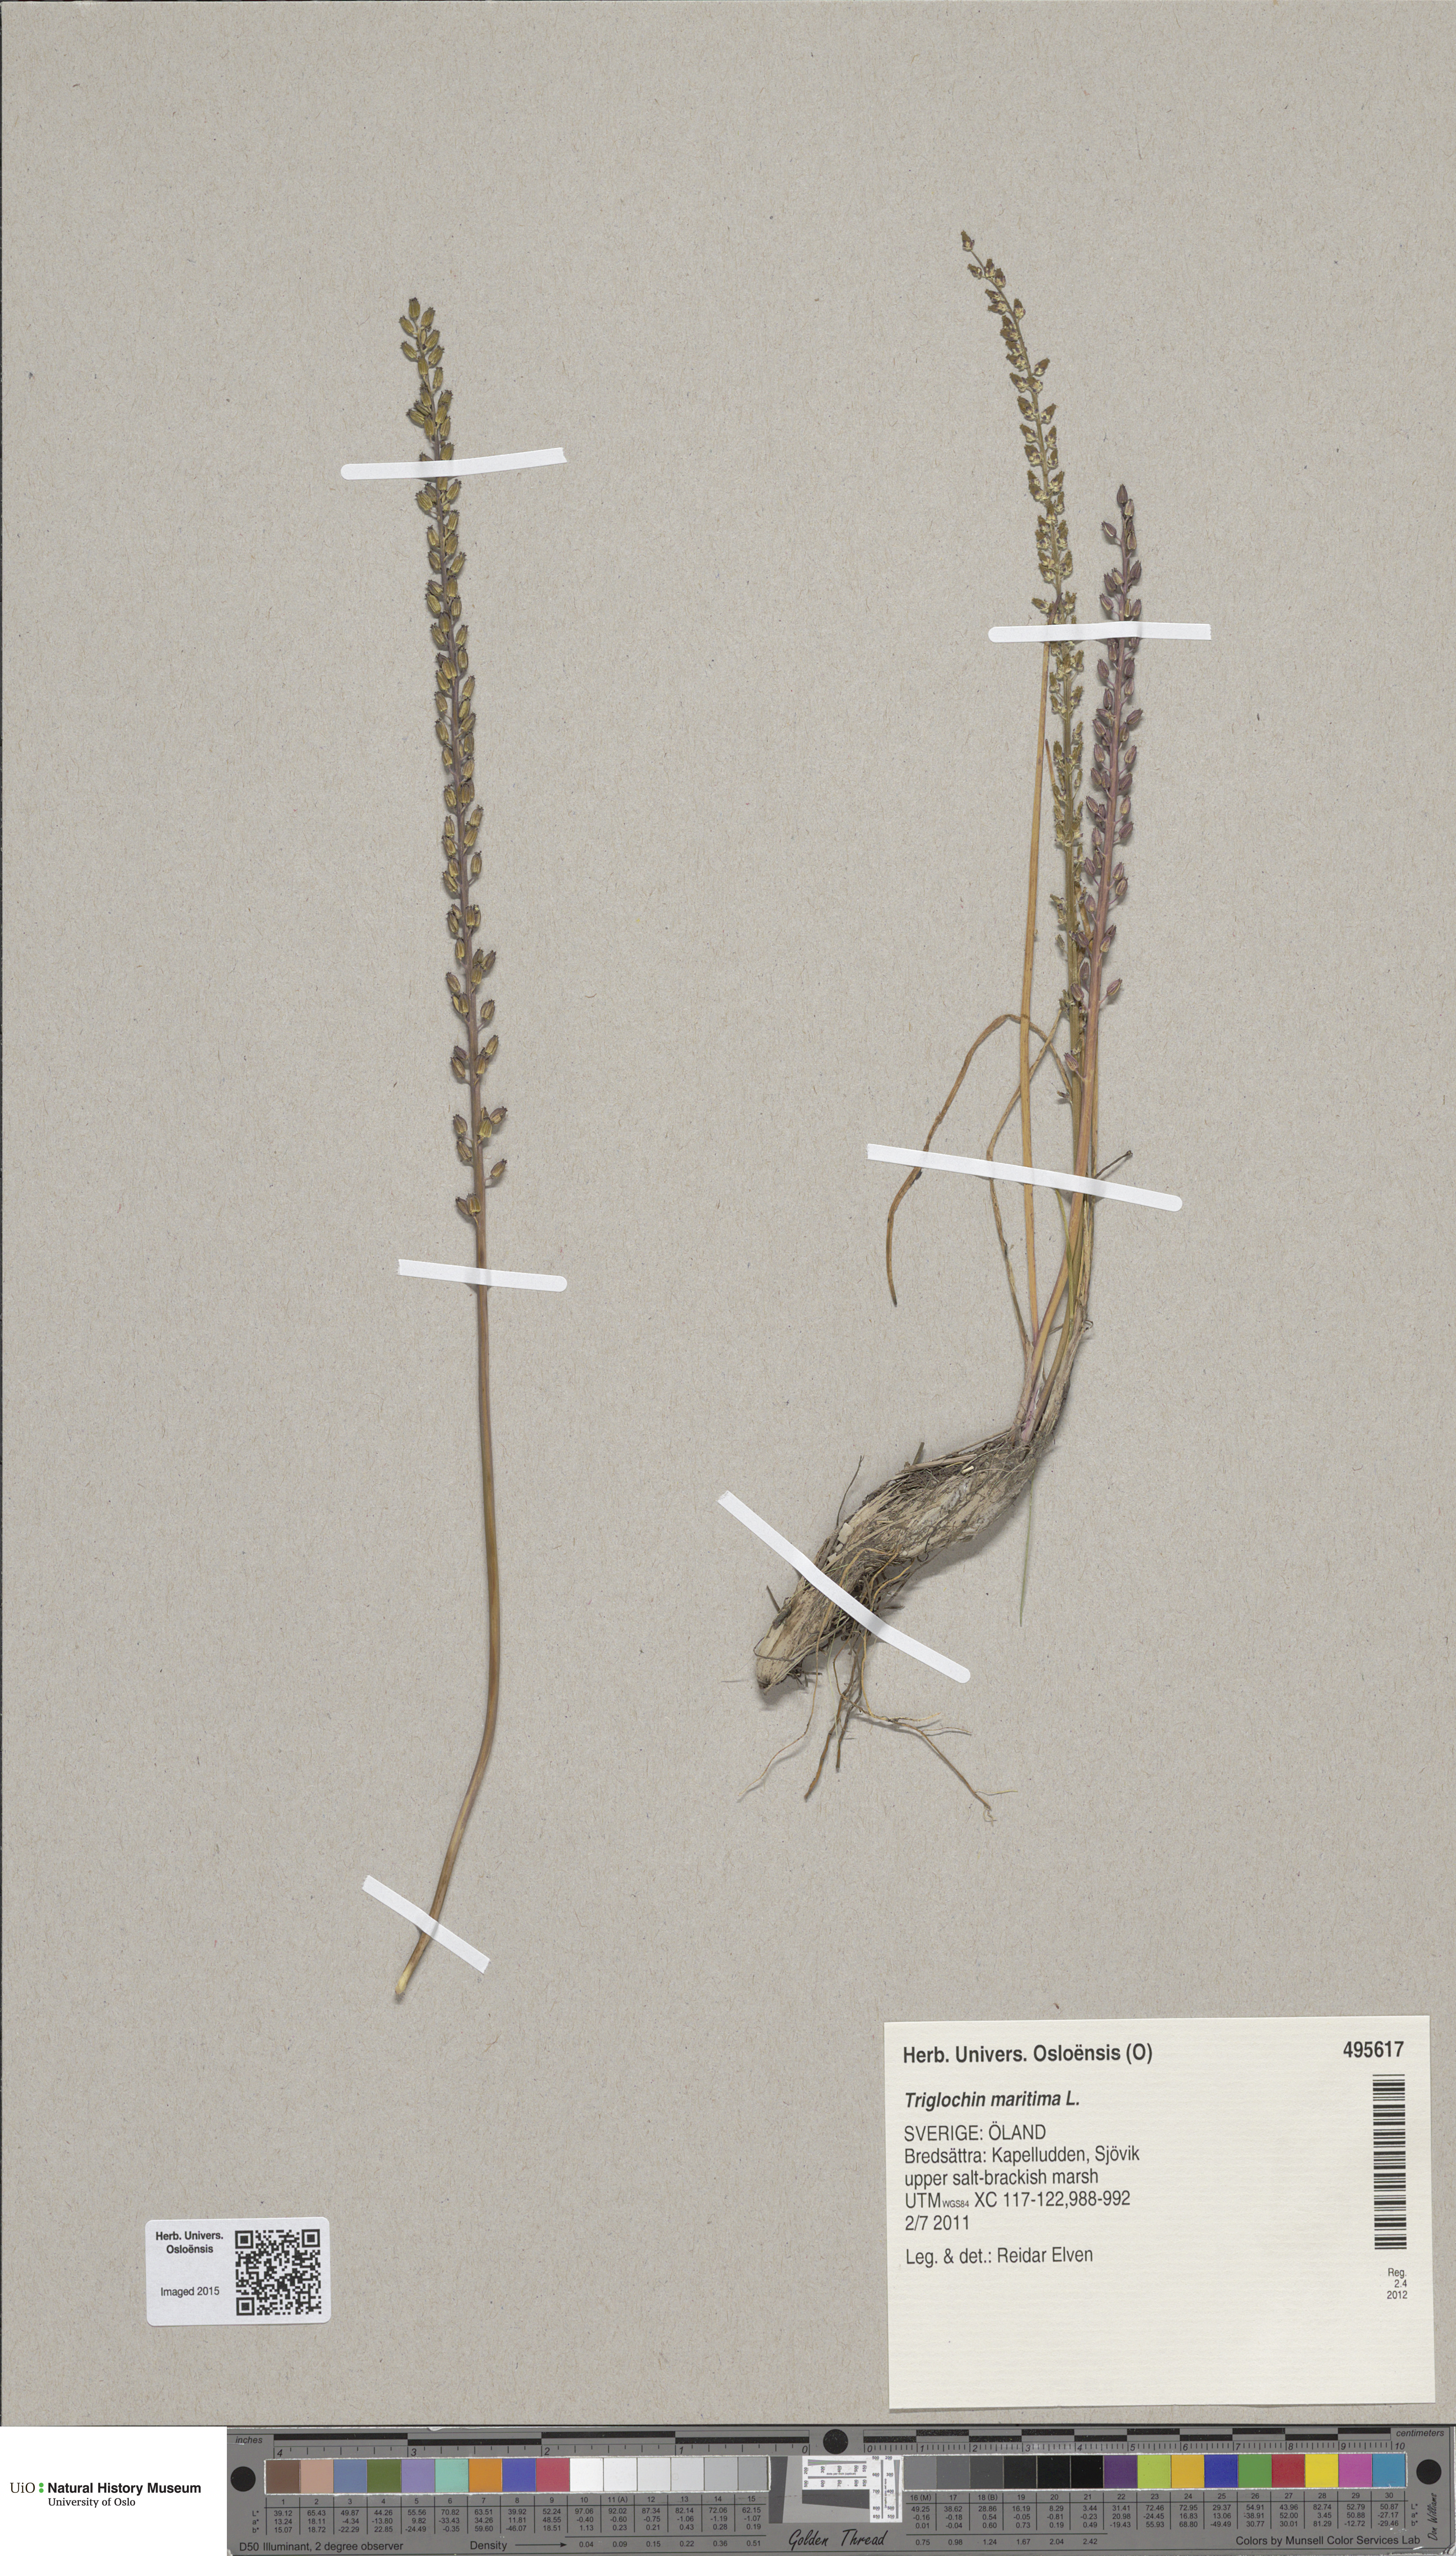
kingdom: Plantae
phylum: Tracheophyta
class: Liliopsida
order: Alismatales
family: Juncaginaceae
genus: Triglochin
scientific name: Triglochin maritima
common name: Sea arrowgrass
